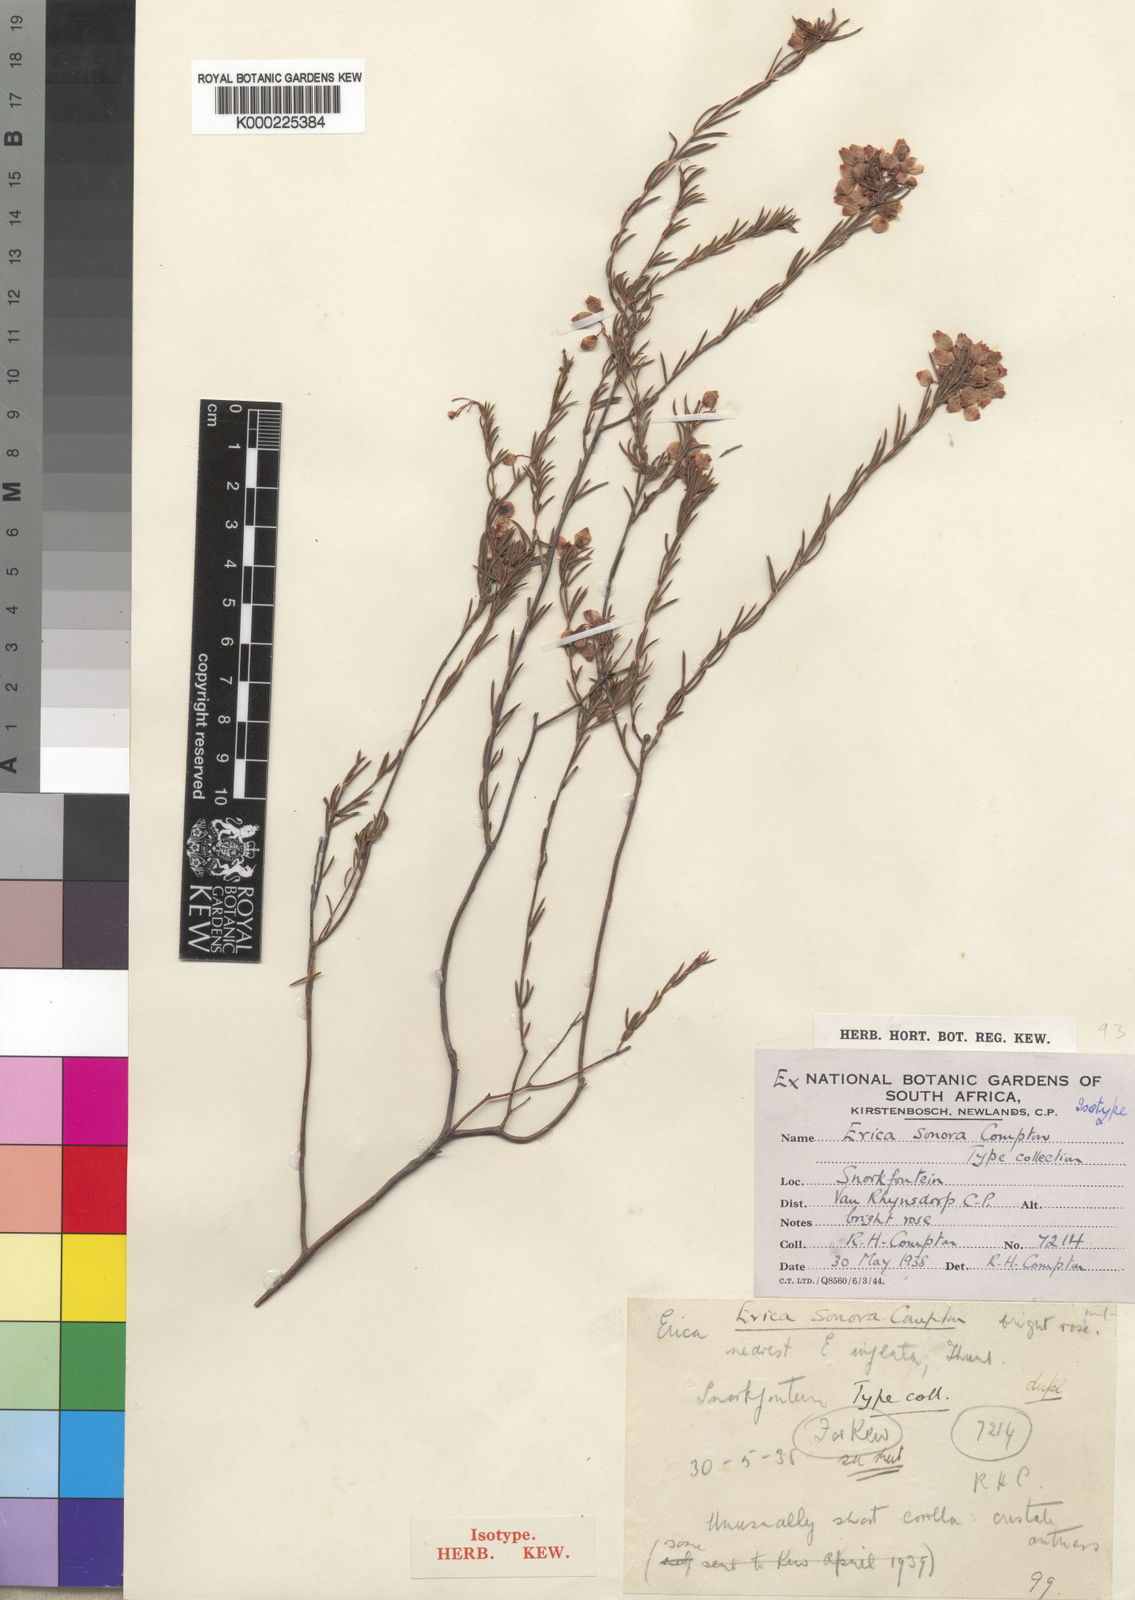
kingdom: Plantae
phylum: Tracheophyta
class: Magnoliopsida
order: Ericales
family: Ericaceae
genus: Erica
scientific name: Erica aristifolia
